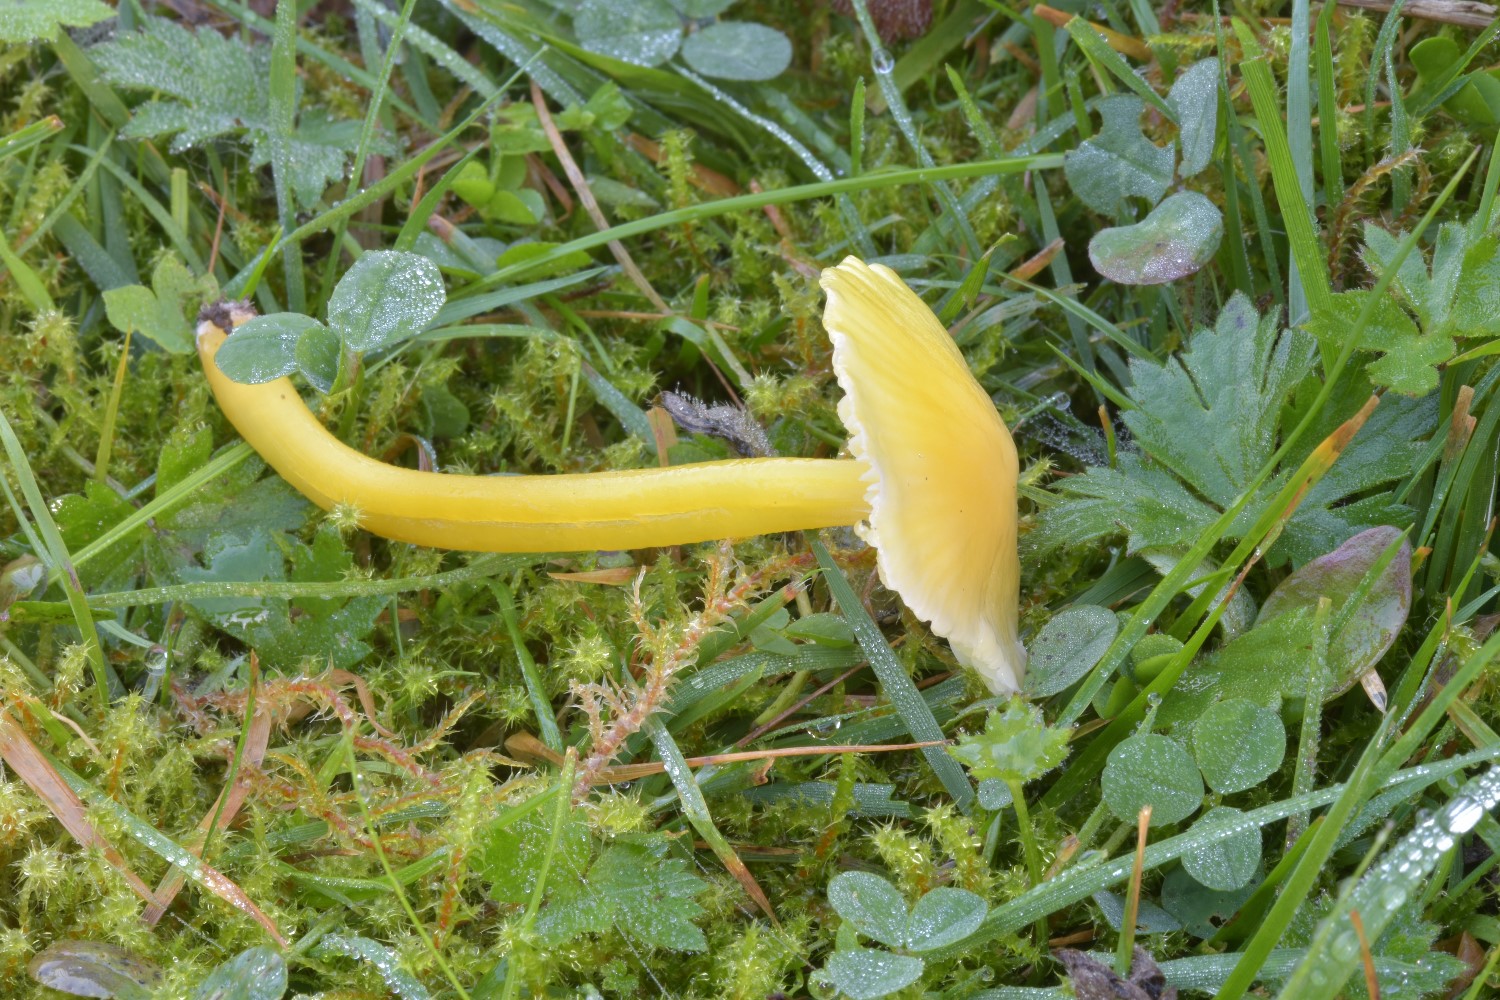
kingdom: Fungi
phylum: Basidiomycota
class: Agaricomycetes
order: Agaricales
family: Hygrophoraceae
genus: Hygrocybe
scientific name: Hygrocybe chlorophana
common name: gul vokshat
